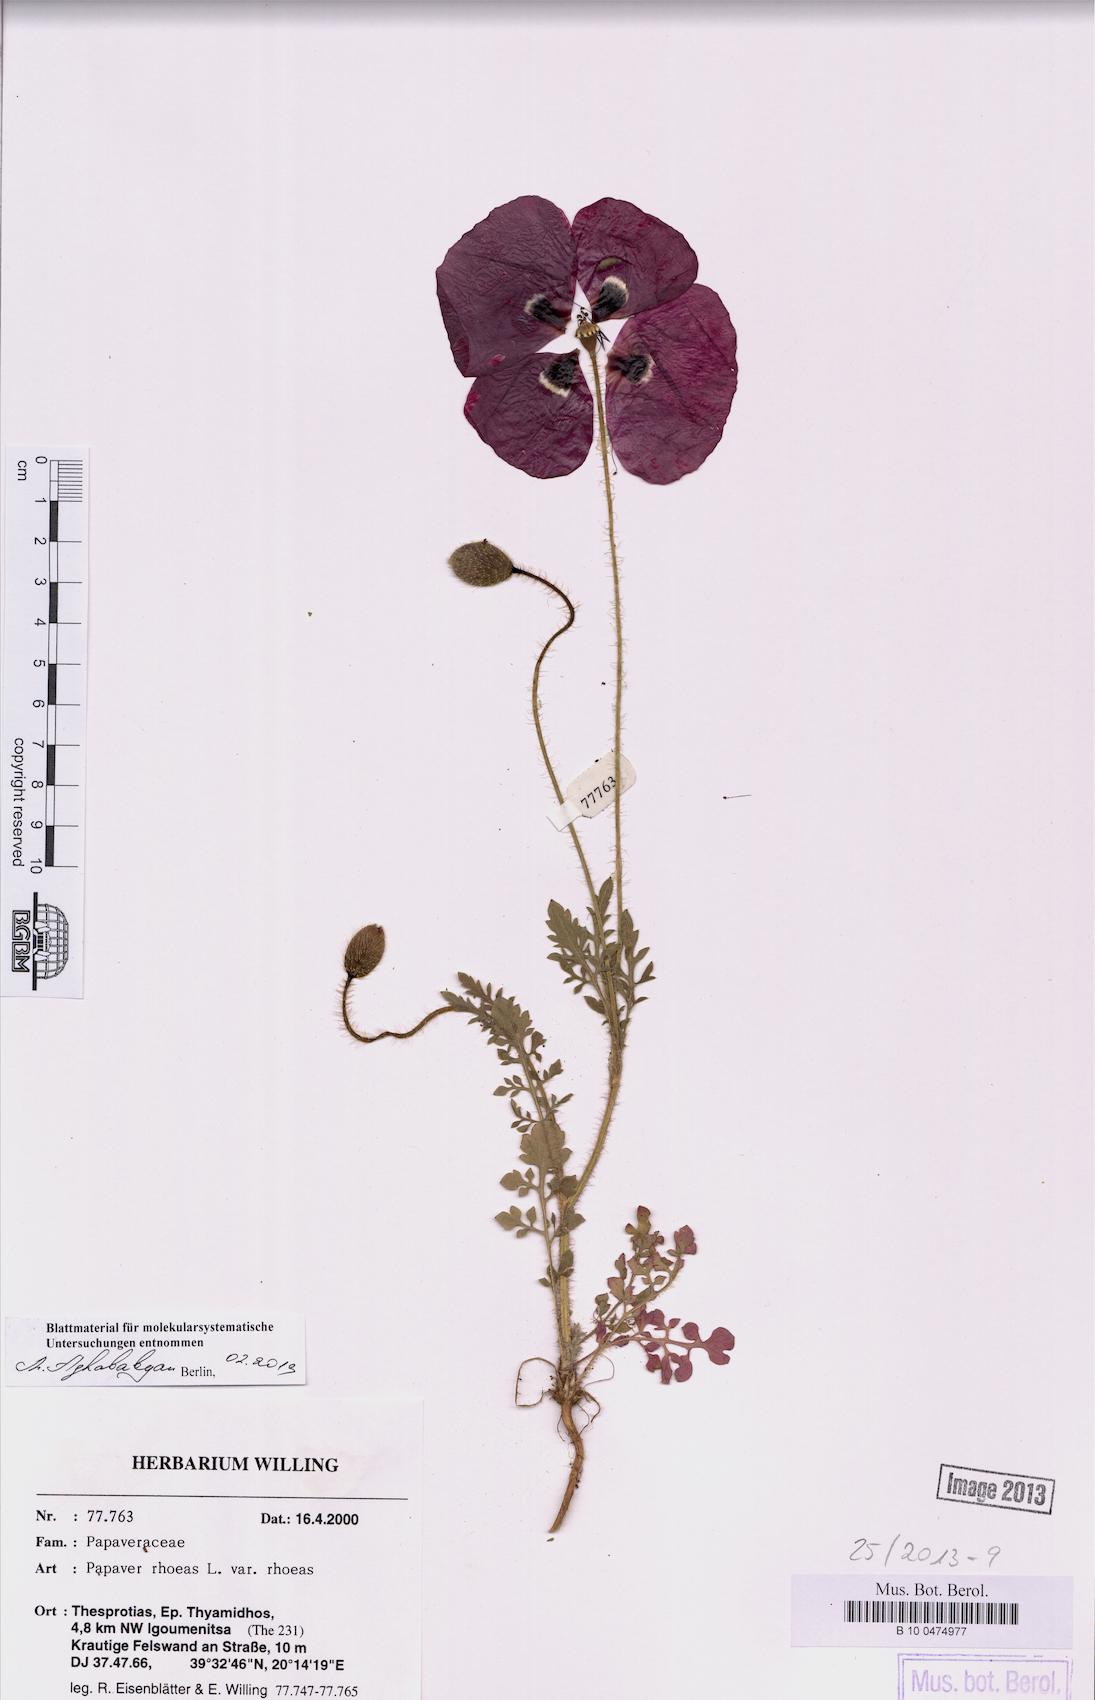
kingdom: Plantae
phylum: Tracheophyta
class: Magnoliopsida
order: Ranunculales
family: Papaveraceae
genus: Papaver
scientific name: Papaver rhoeas
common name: Corn poppy
